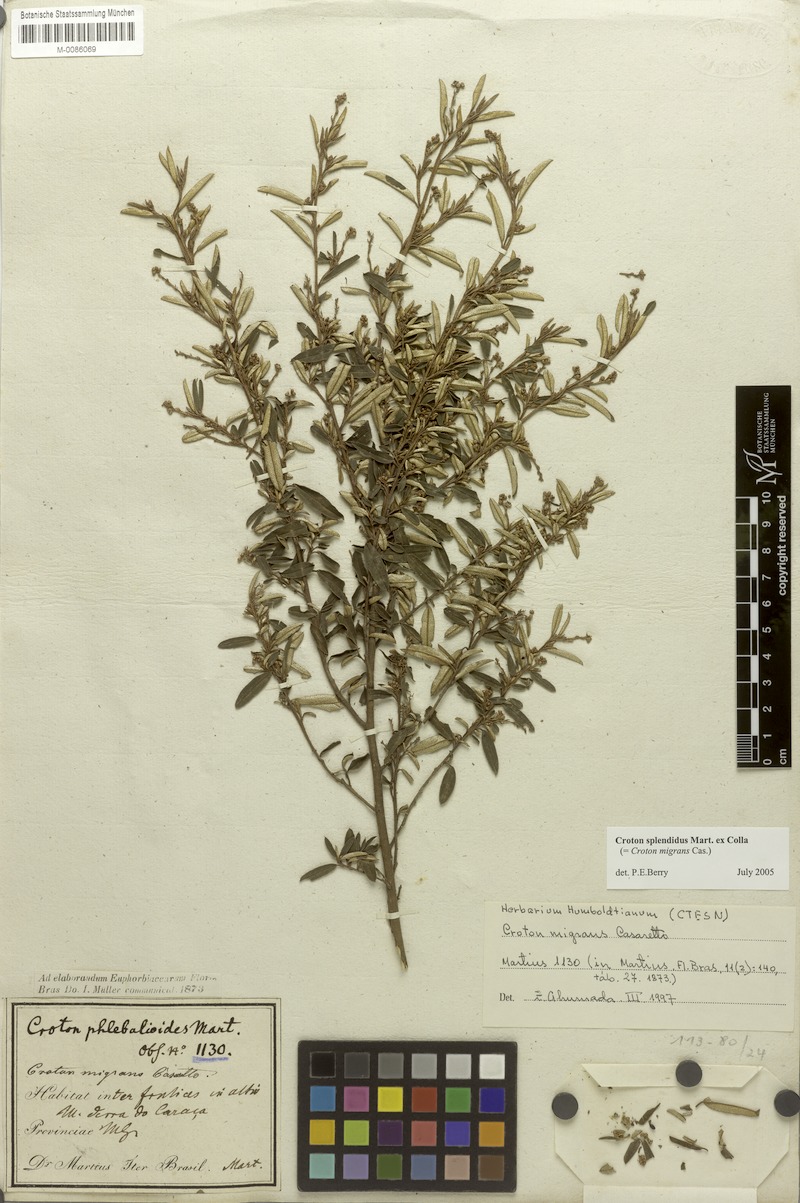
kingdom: Plantae
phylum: Tracheophyta
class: Magnoliopsida
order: Malpighiales
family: Euphorbiaceae
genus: Croton
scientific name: Croton splendidus
